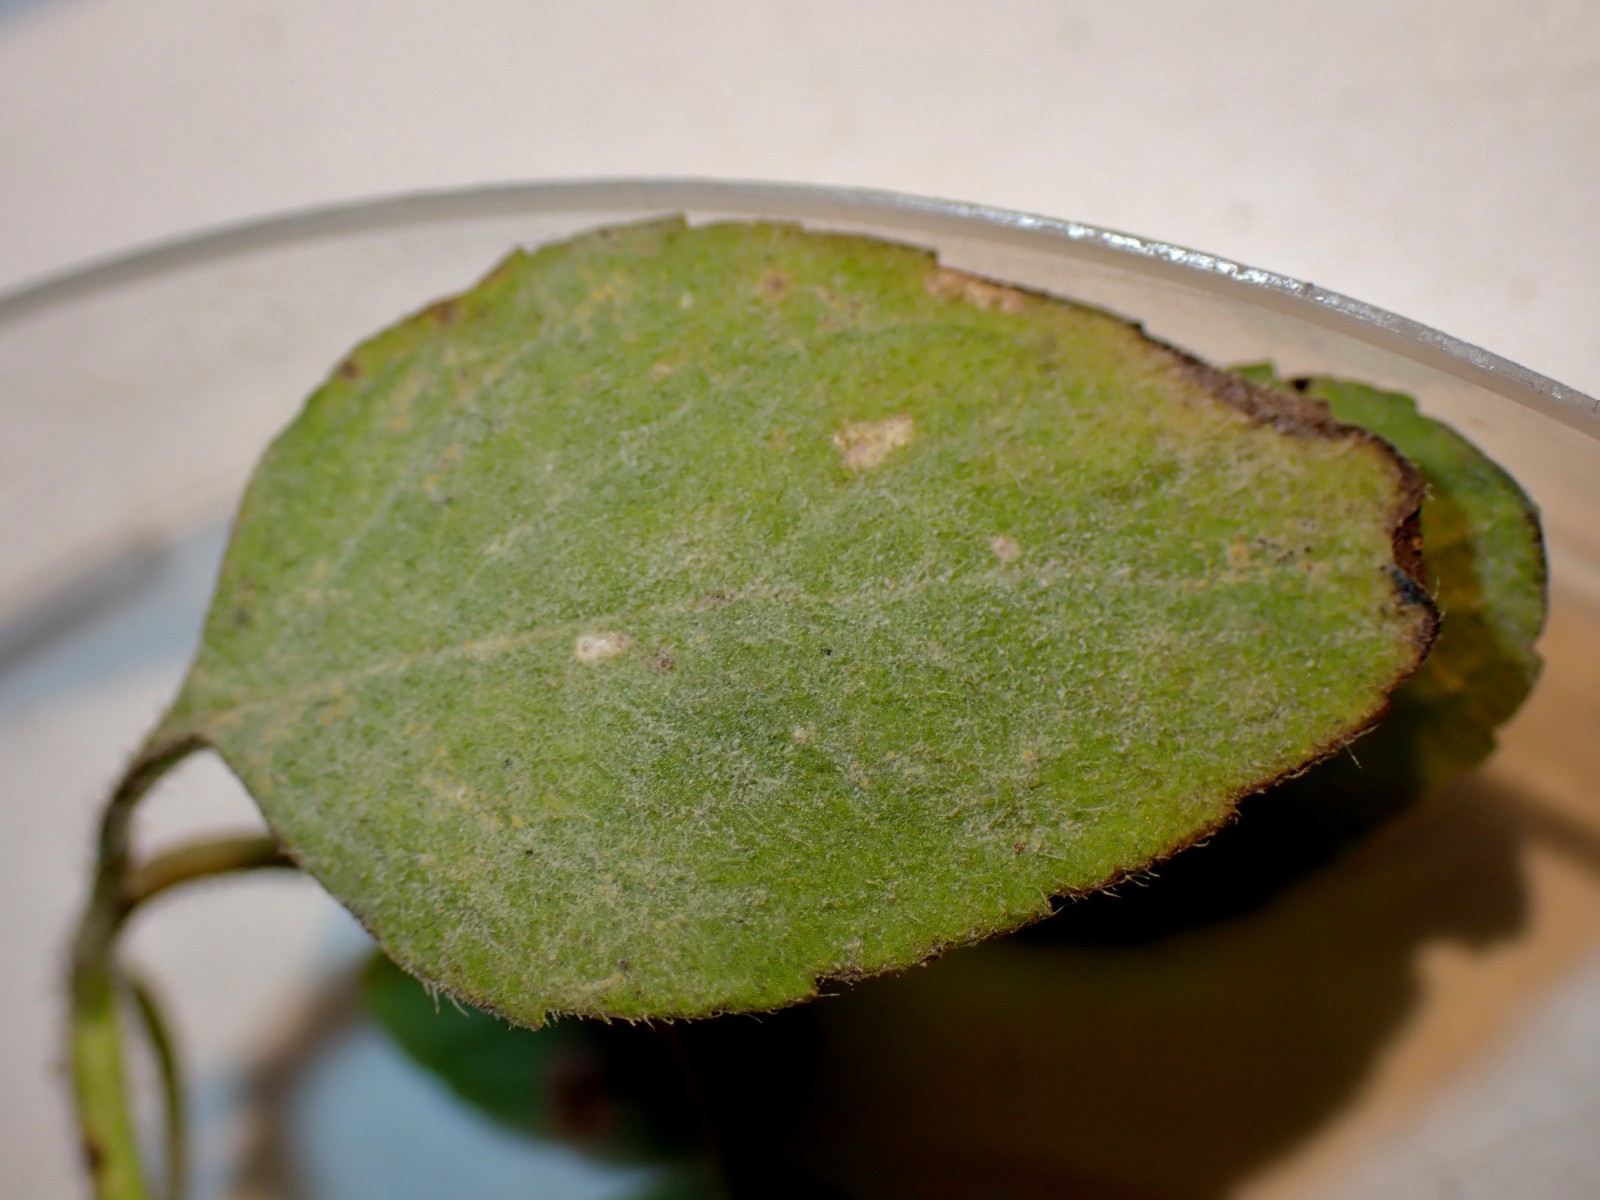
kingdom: Fungi
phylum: Ascomycota
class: Leotiomycetes
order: Helotiales
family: Erysiphaceae
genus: Golovinomyces
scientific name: Golovinomyces monardae
